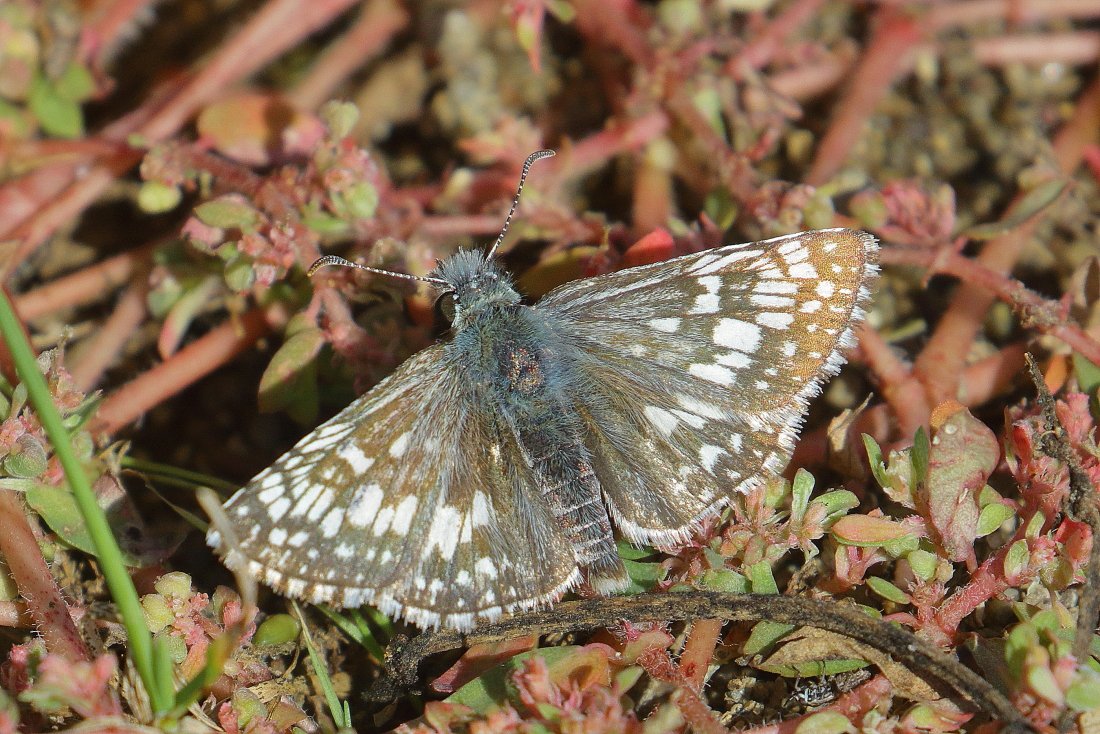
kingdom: Animalia
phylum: Arthropoda
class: Insecta
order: Lepidoptera
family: Hesperiidae
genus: Pyrgus
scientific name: Pyrgus communis
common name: Common Checkered-Skipper
